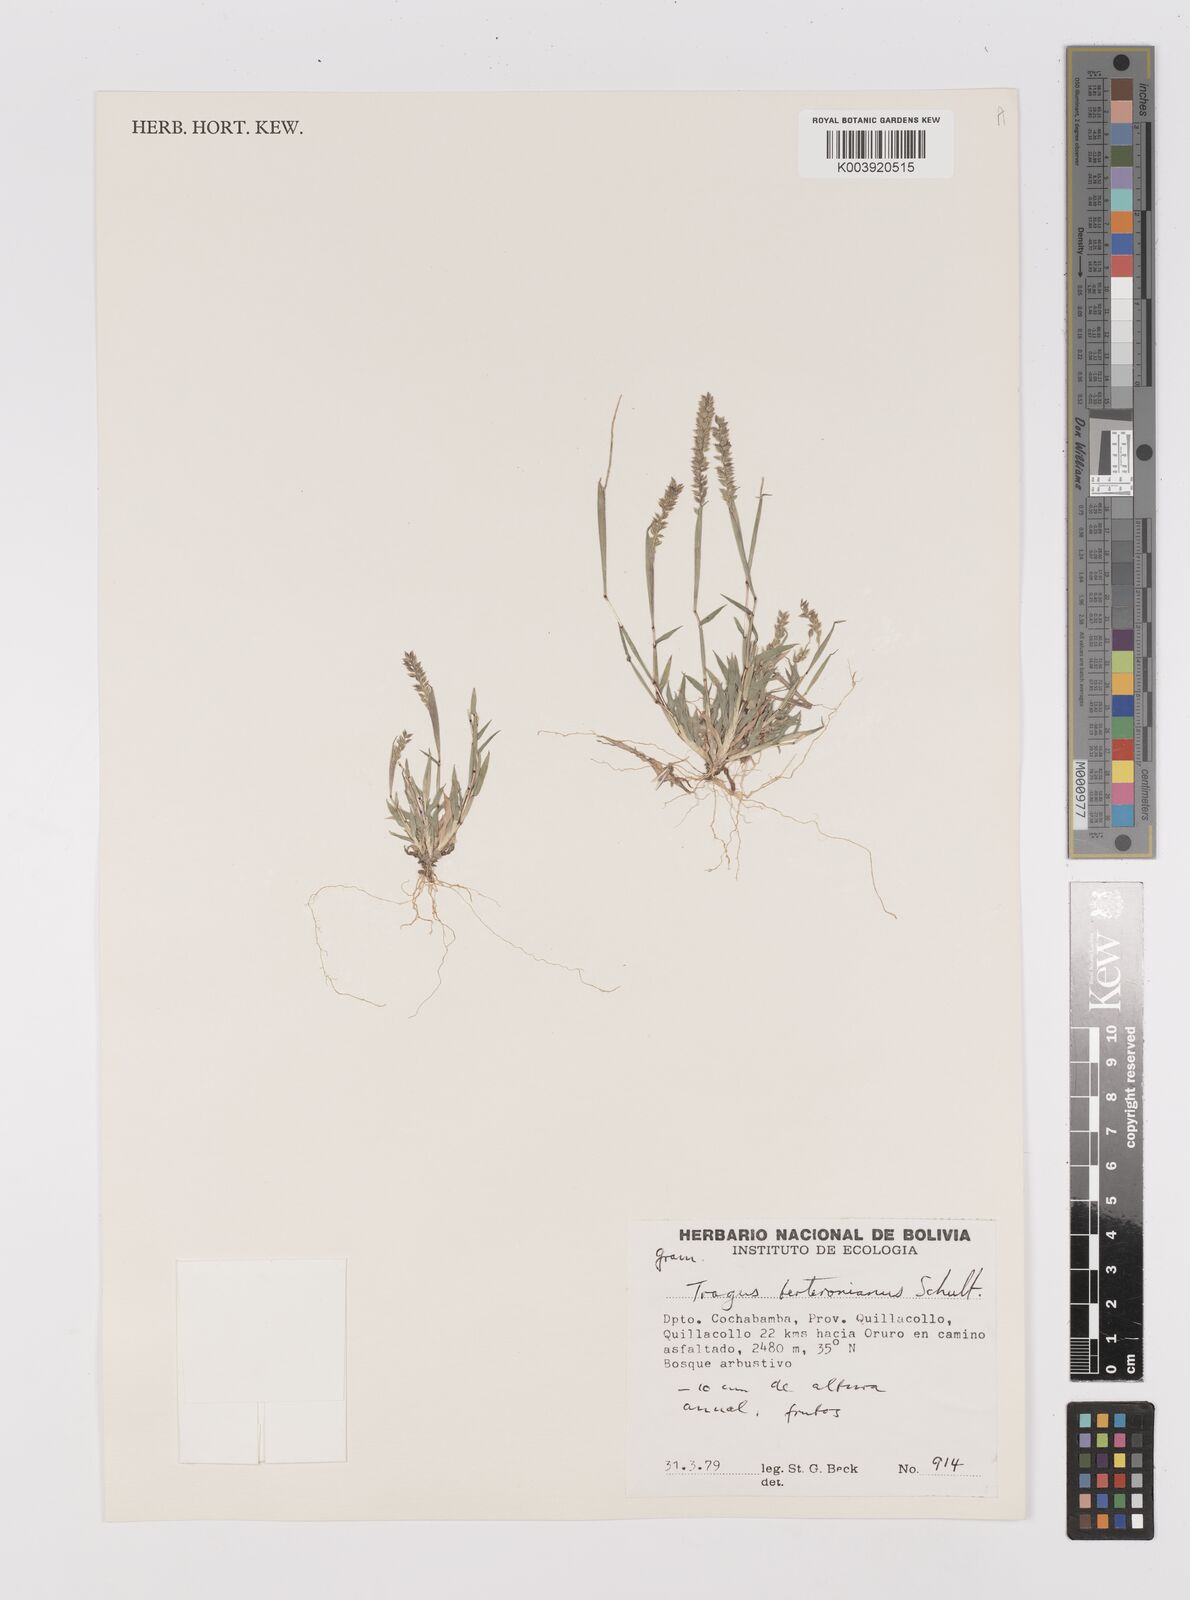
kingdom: Plantae
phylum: Tracheophyta
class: Liliopsida
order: Poales
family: Poaceae
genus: Tragus
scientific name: Tragus berteronianus
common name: African bur-grass
